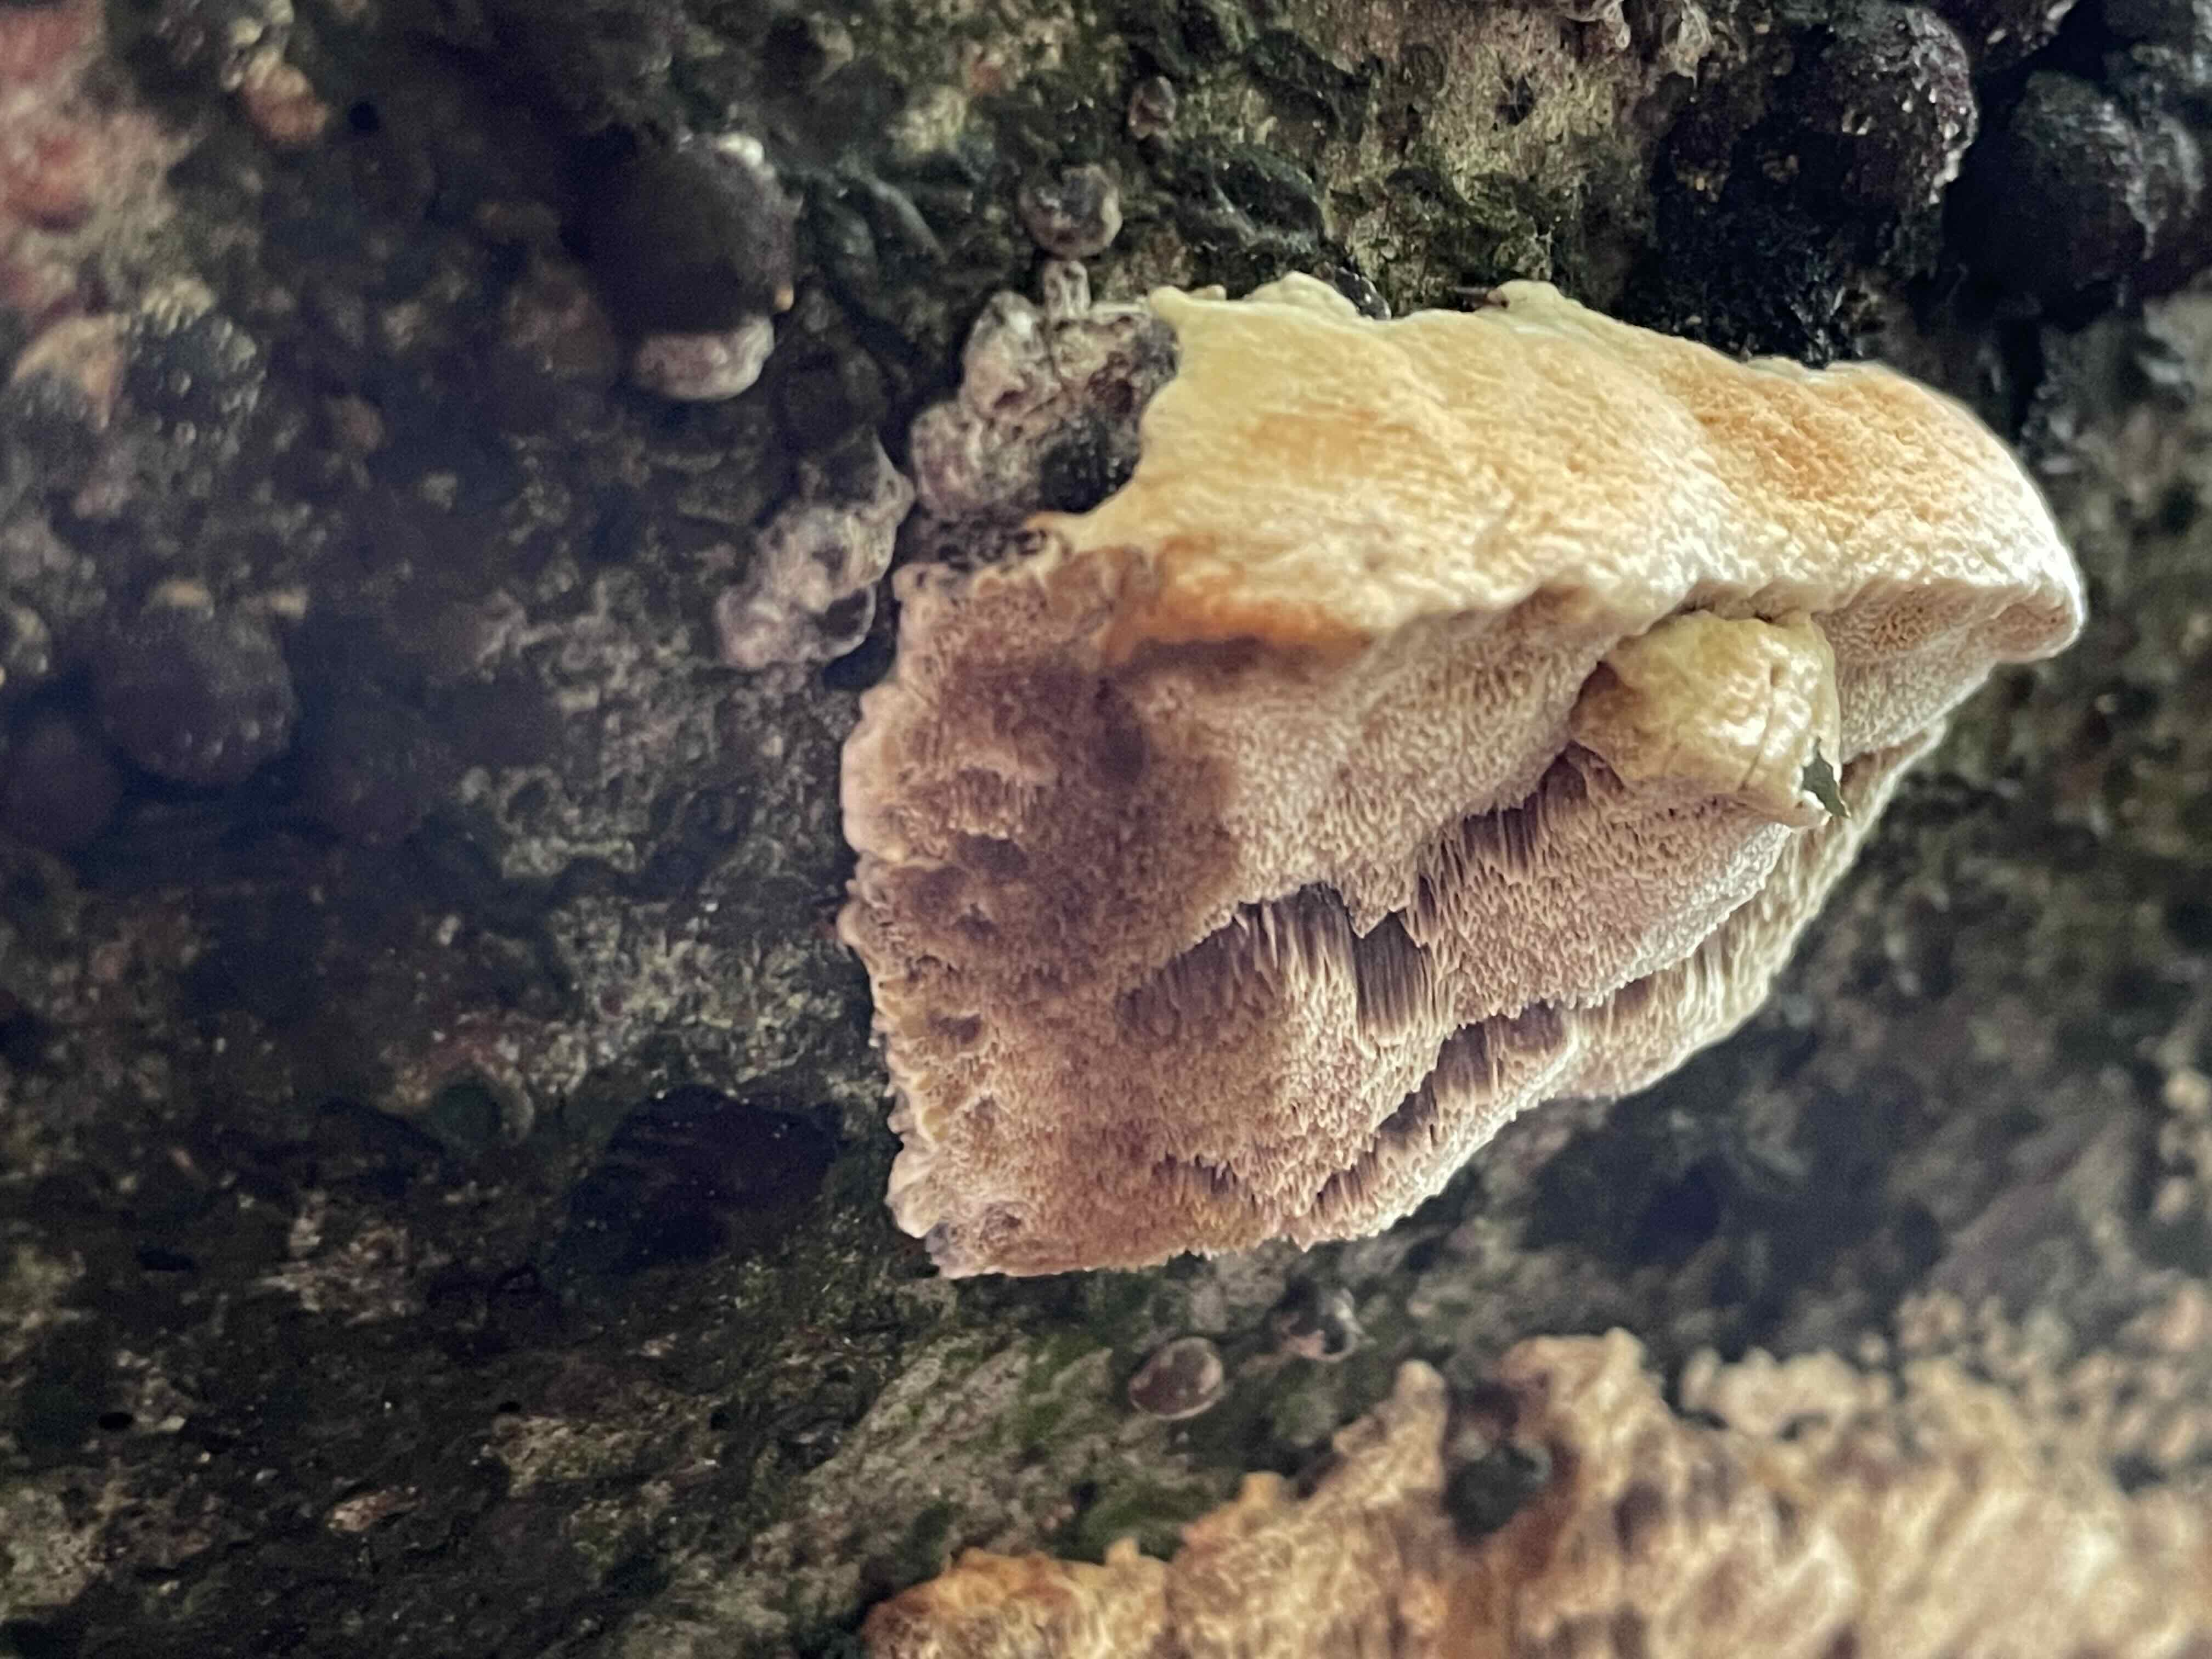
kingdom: Fungi
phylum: Basidiomycota
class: Agaricomycetes
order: Hymenochaetales
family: Hymenochaetaceae
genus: Mensularia
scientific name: Mensularia nodulosa
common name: bøge-spejlporesvamp
